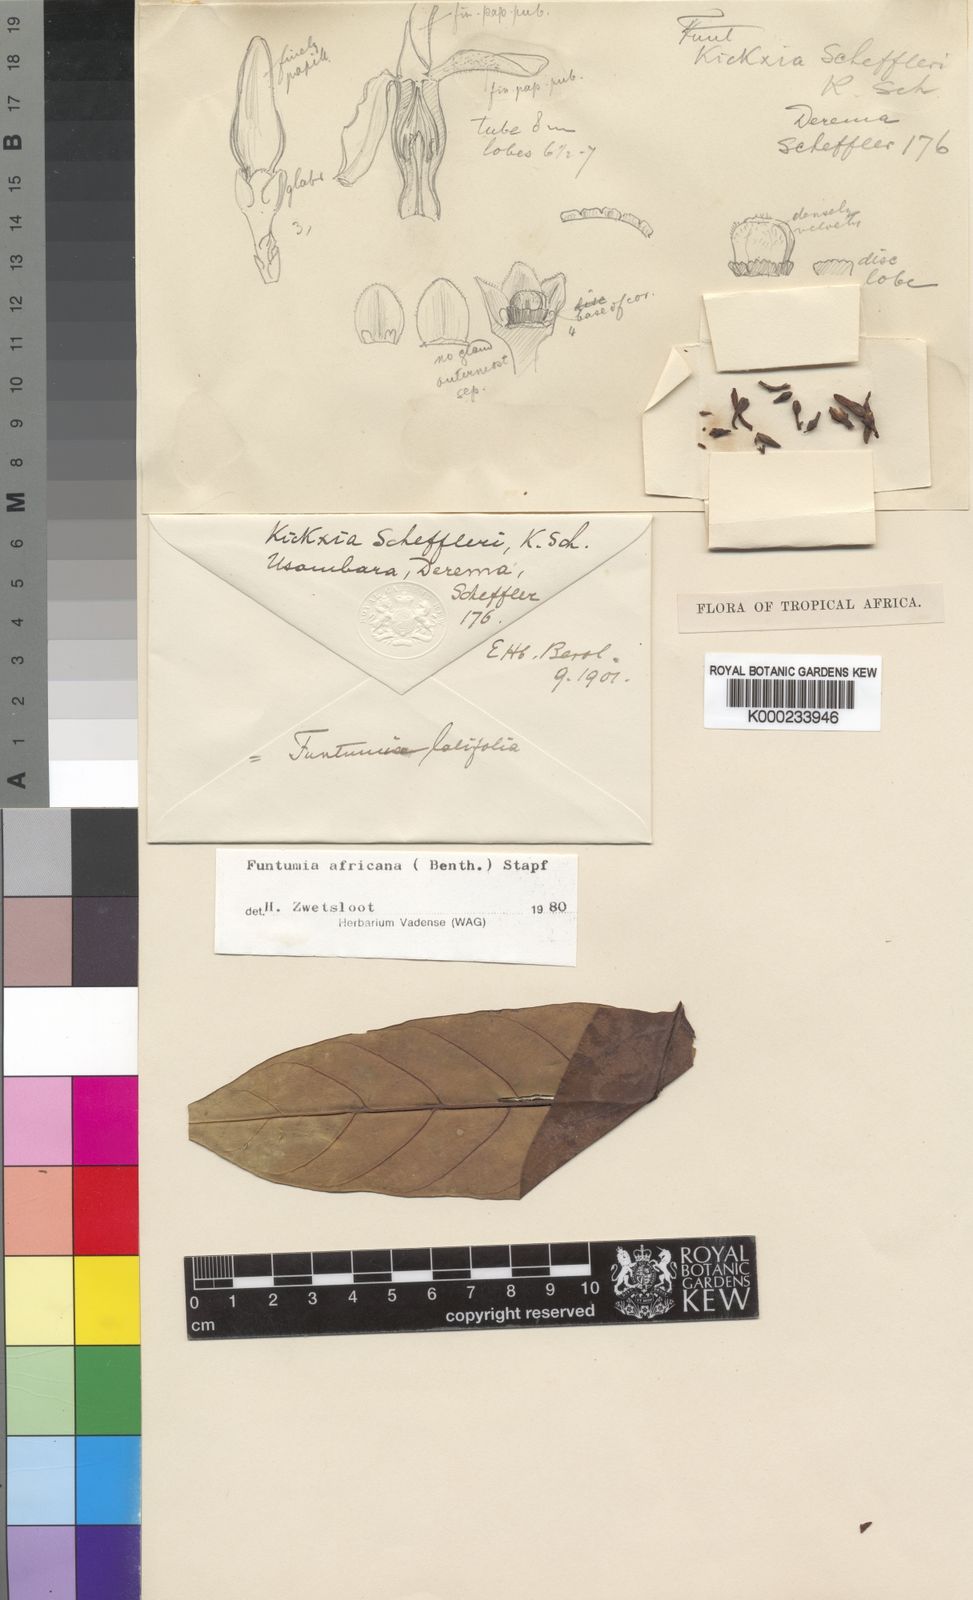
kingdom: Plantae
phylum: Tracheophyta
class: Magnoliopsida
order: Gentianales
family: Apocynaceae
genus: Funtumia
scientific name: Funtumia africana
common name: Lagos-rubber
